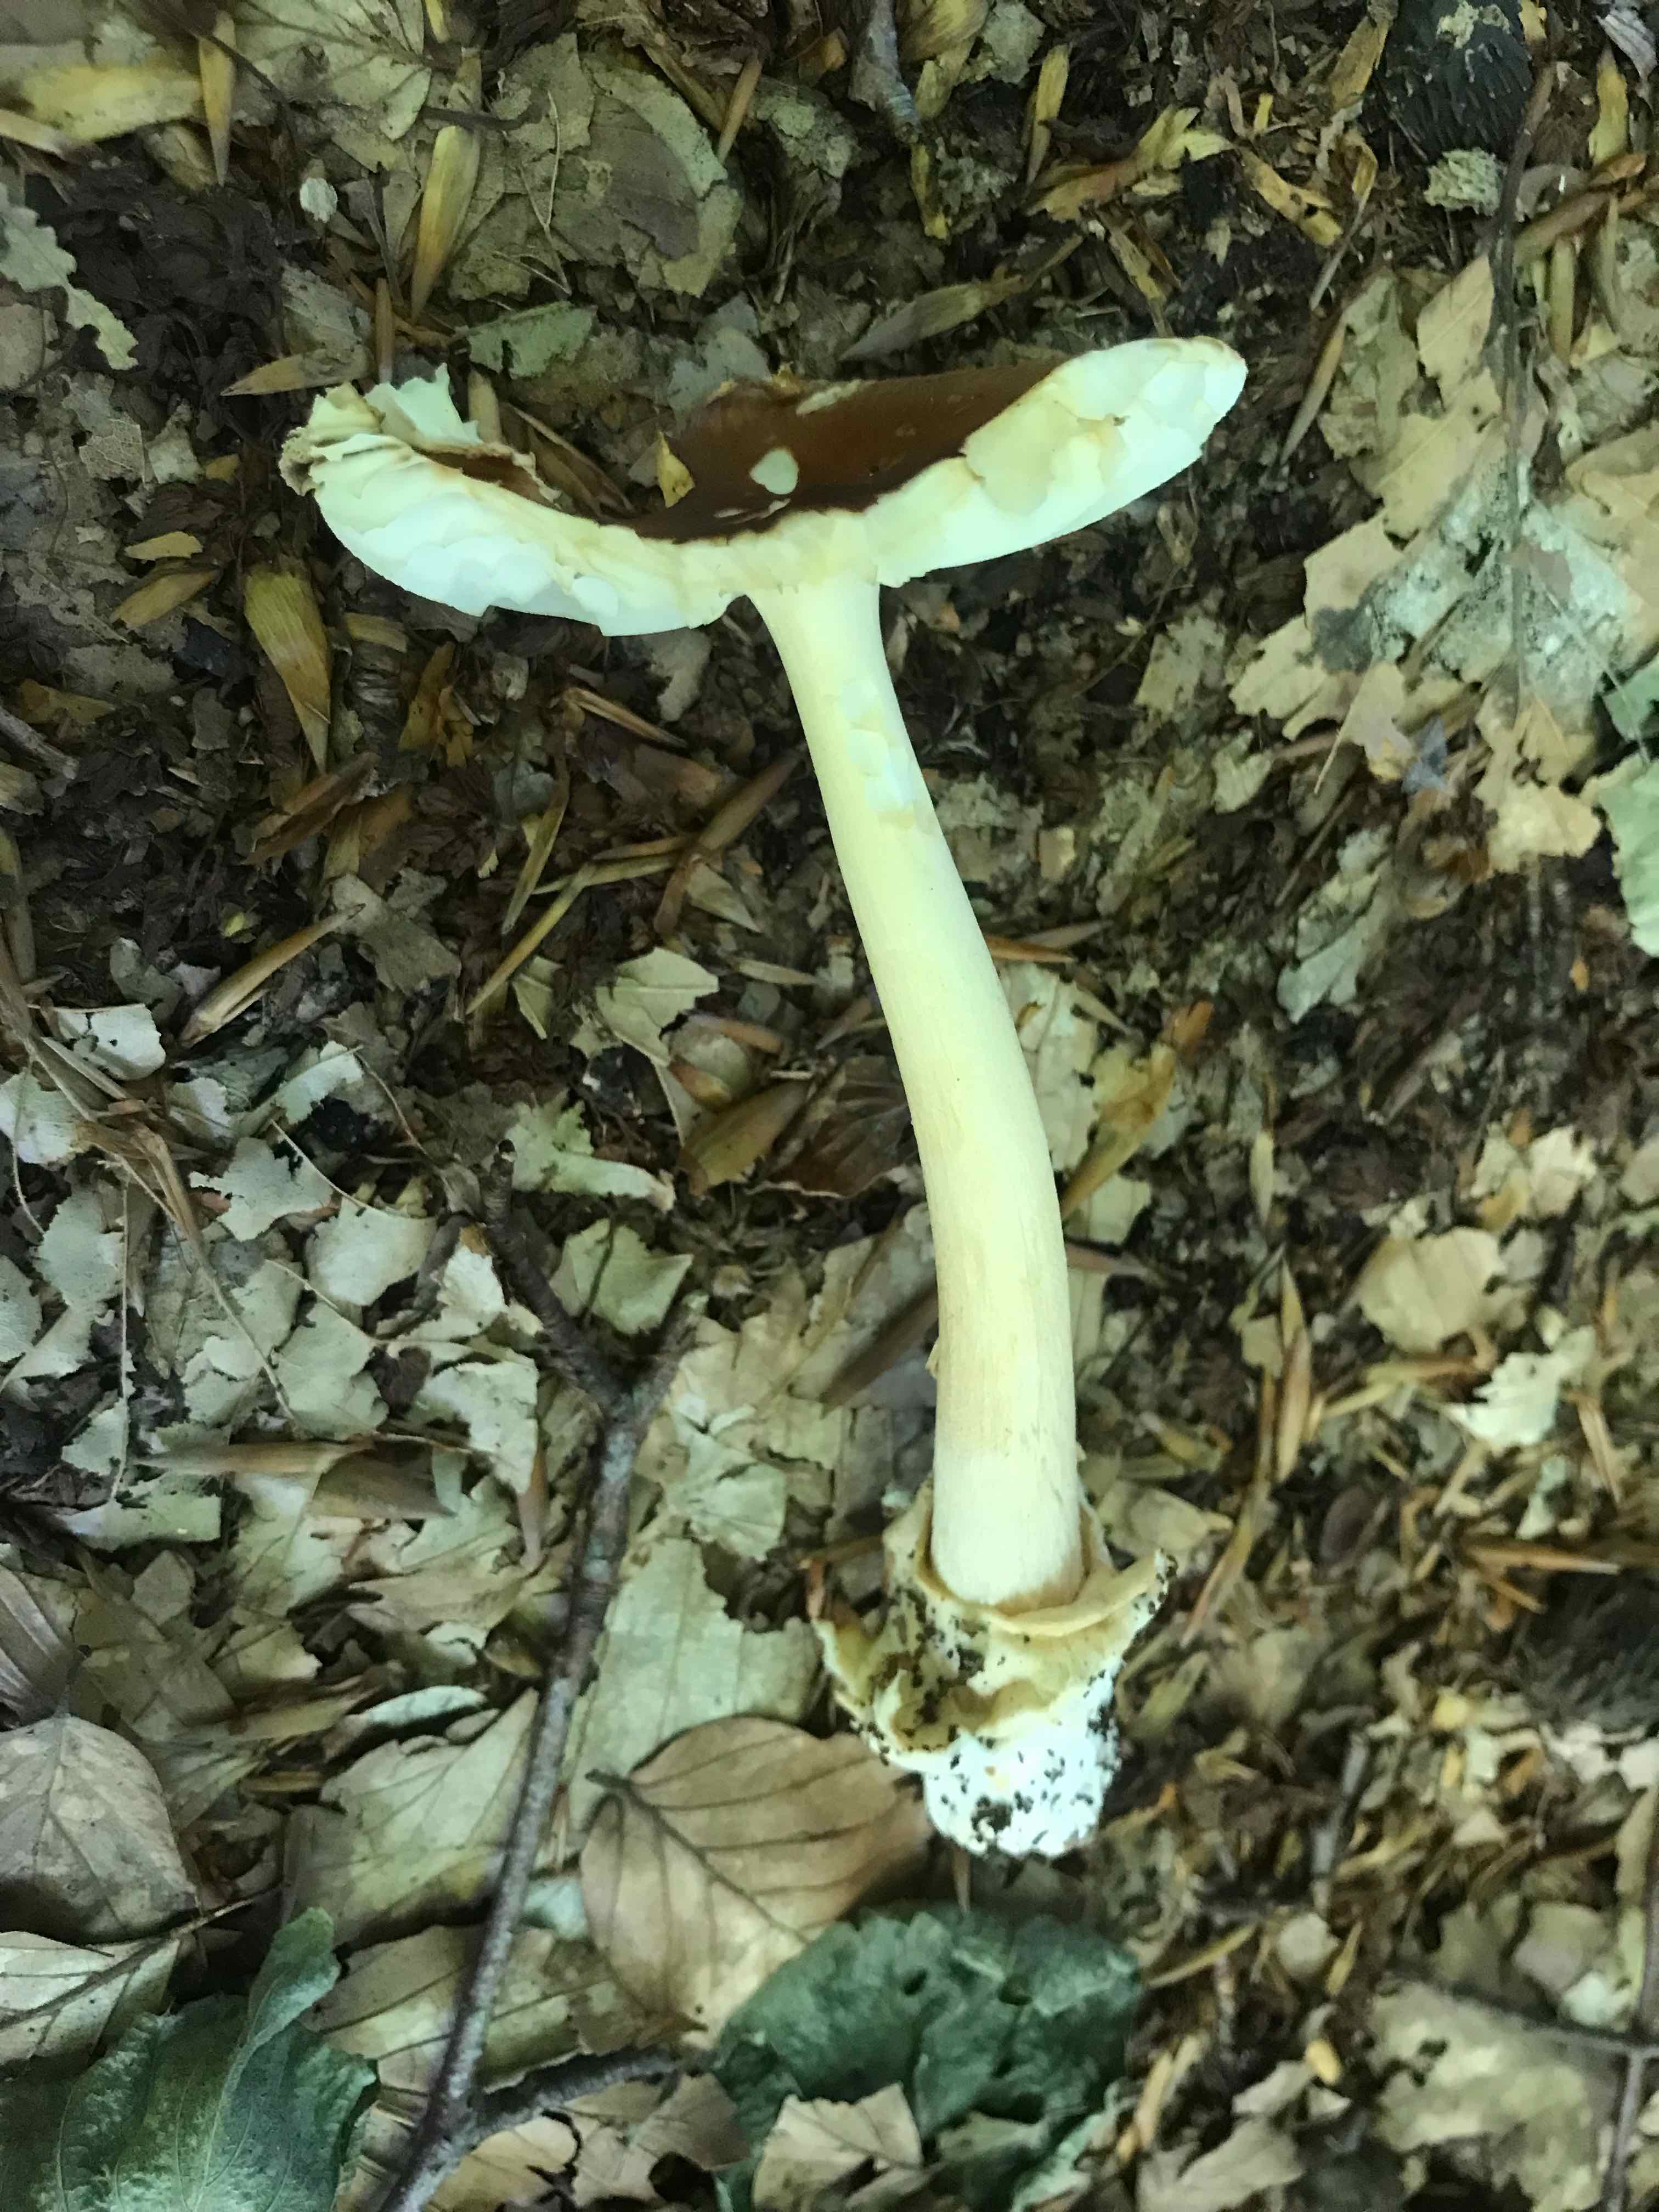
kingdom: Fungi
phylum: Basidiomycota
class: Agaricomycetes
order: Agaricales
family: Amanitaceae
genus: Amanita
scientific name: Amanita fulva
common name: brun kam-fluesvamp
